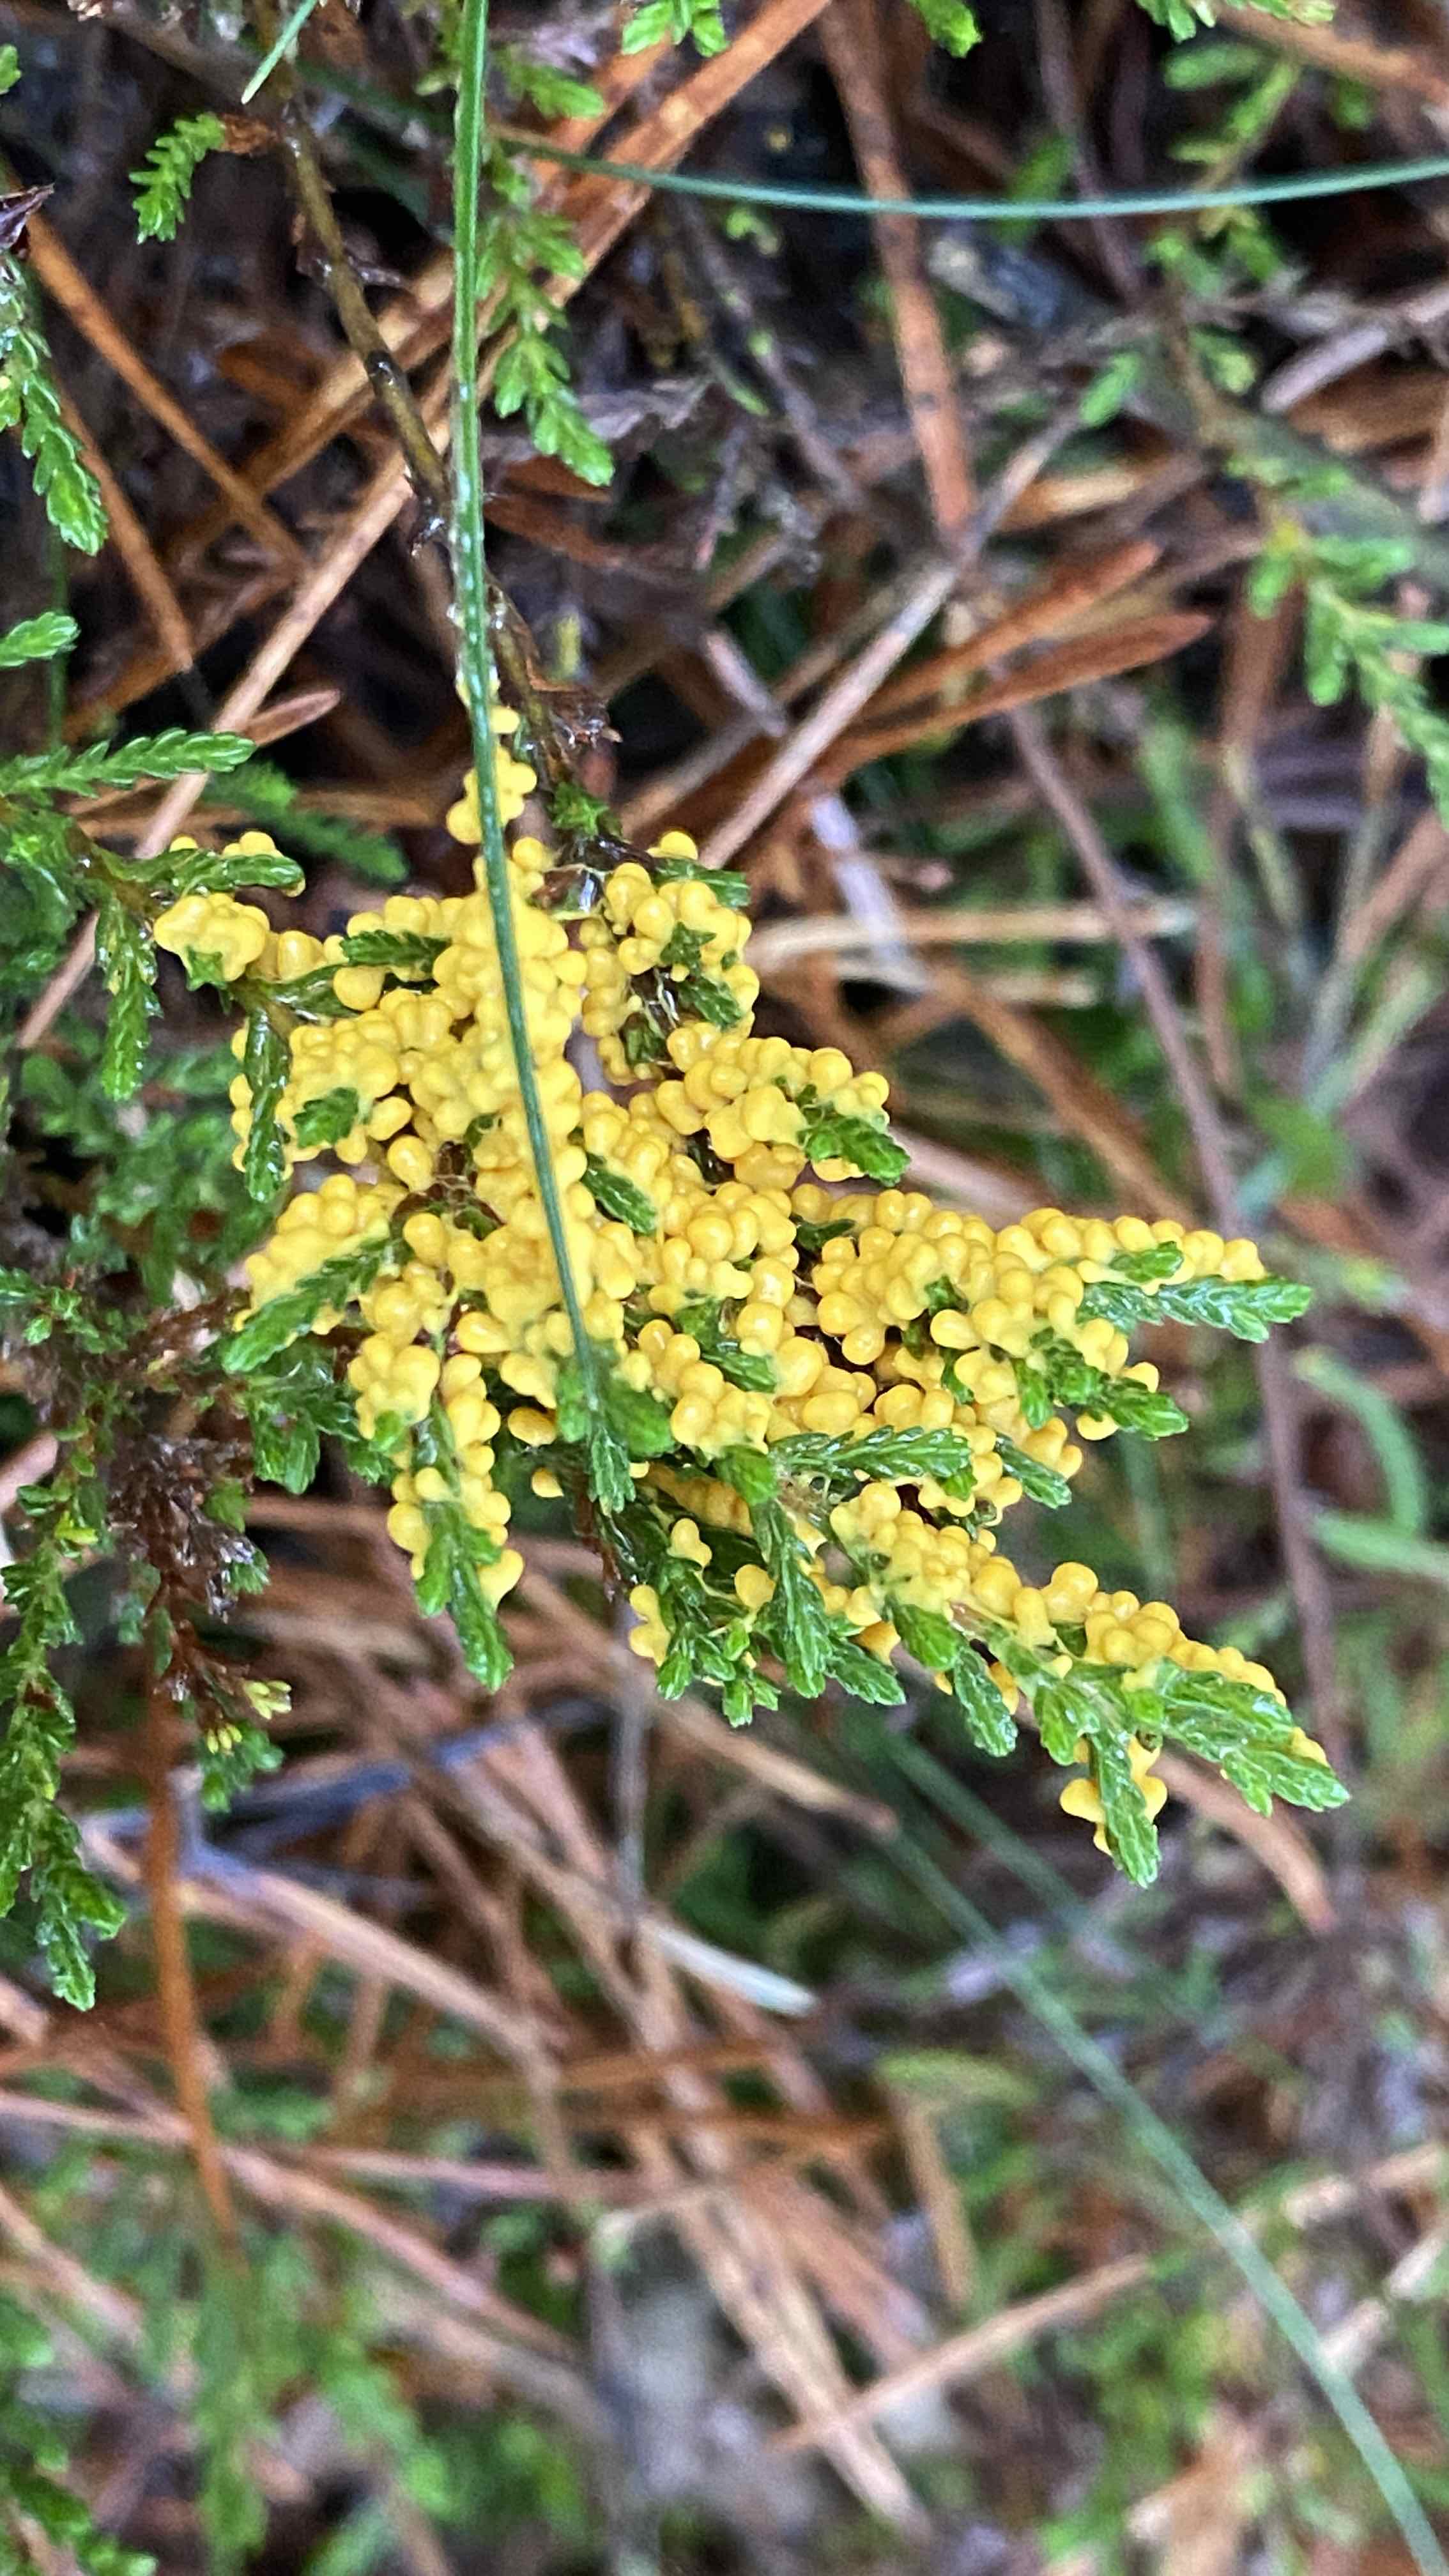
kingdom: Protozoa
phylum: Mycetozoa
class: Myxomycetes
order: Physarales
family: Physaraceae
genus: Leocarpus
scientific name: Leocarpus fragilis
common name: poleret glatfrø
